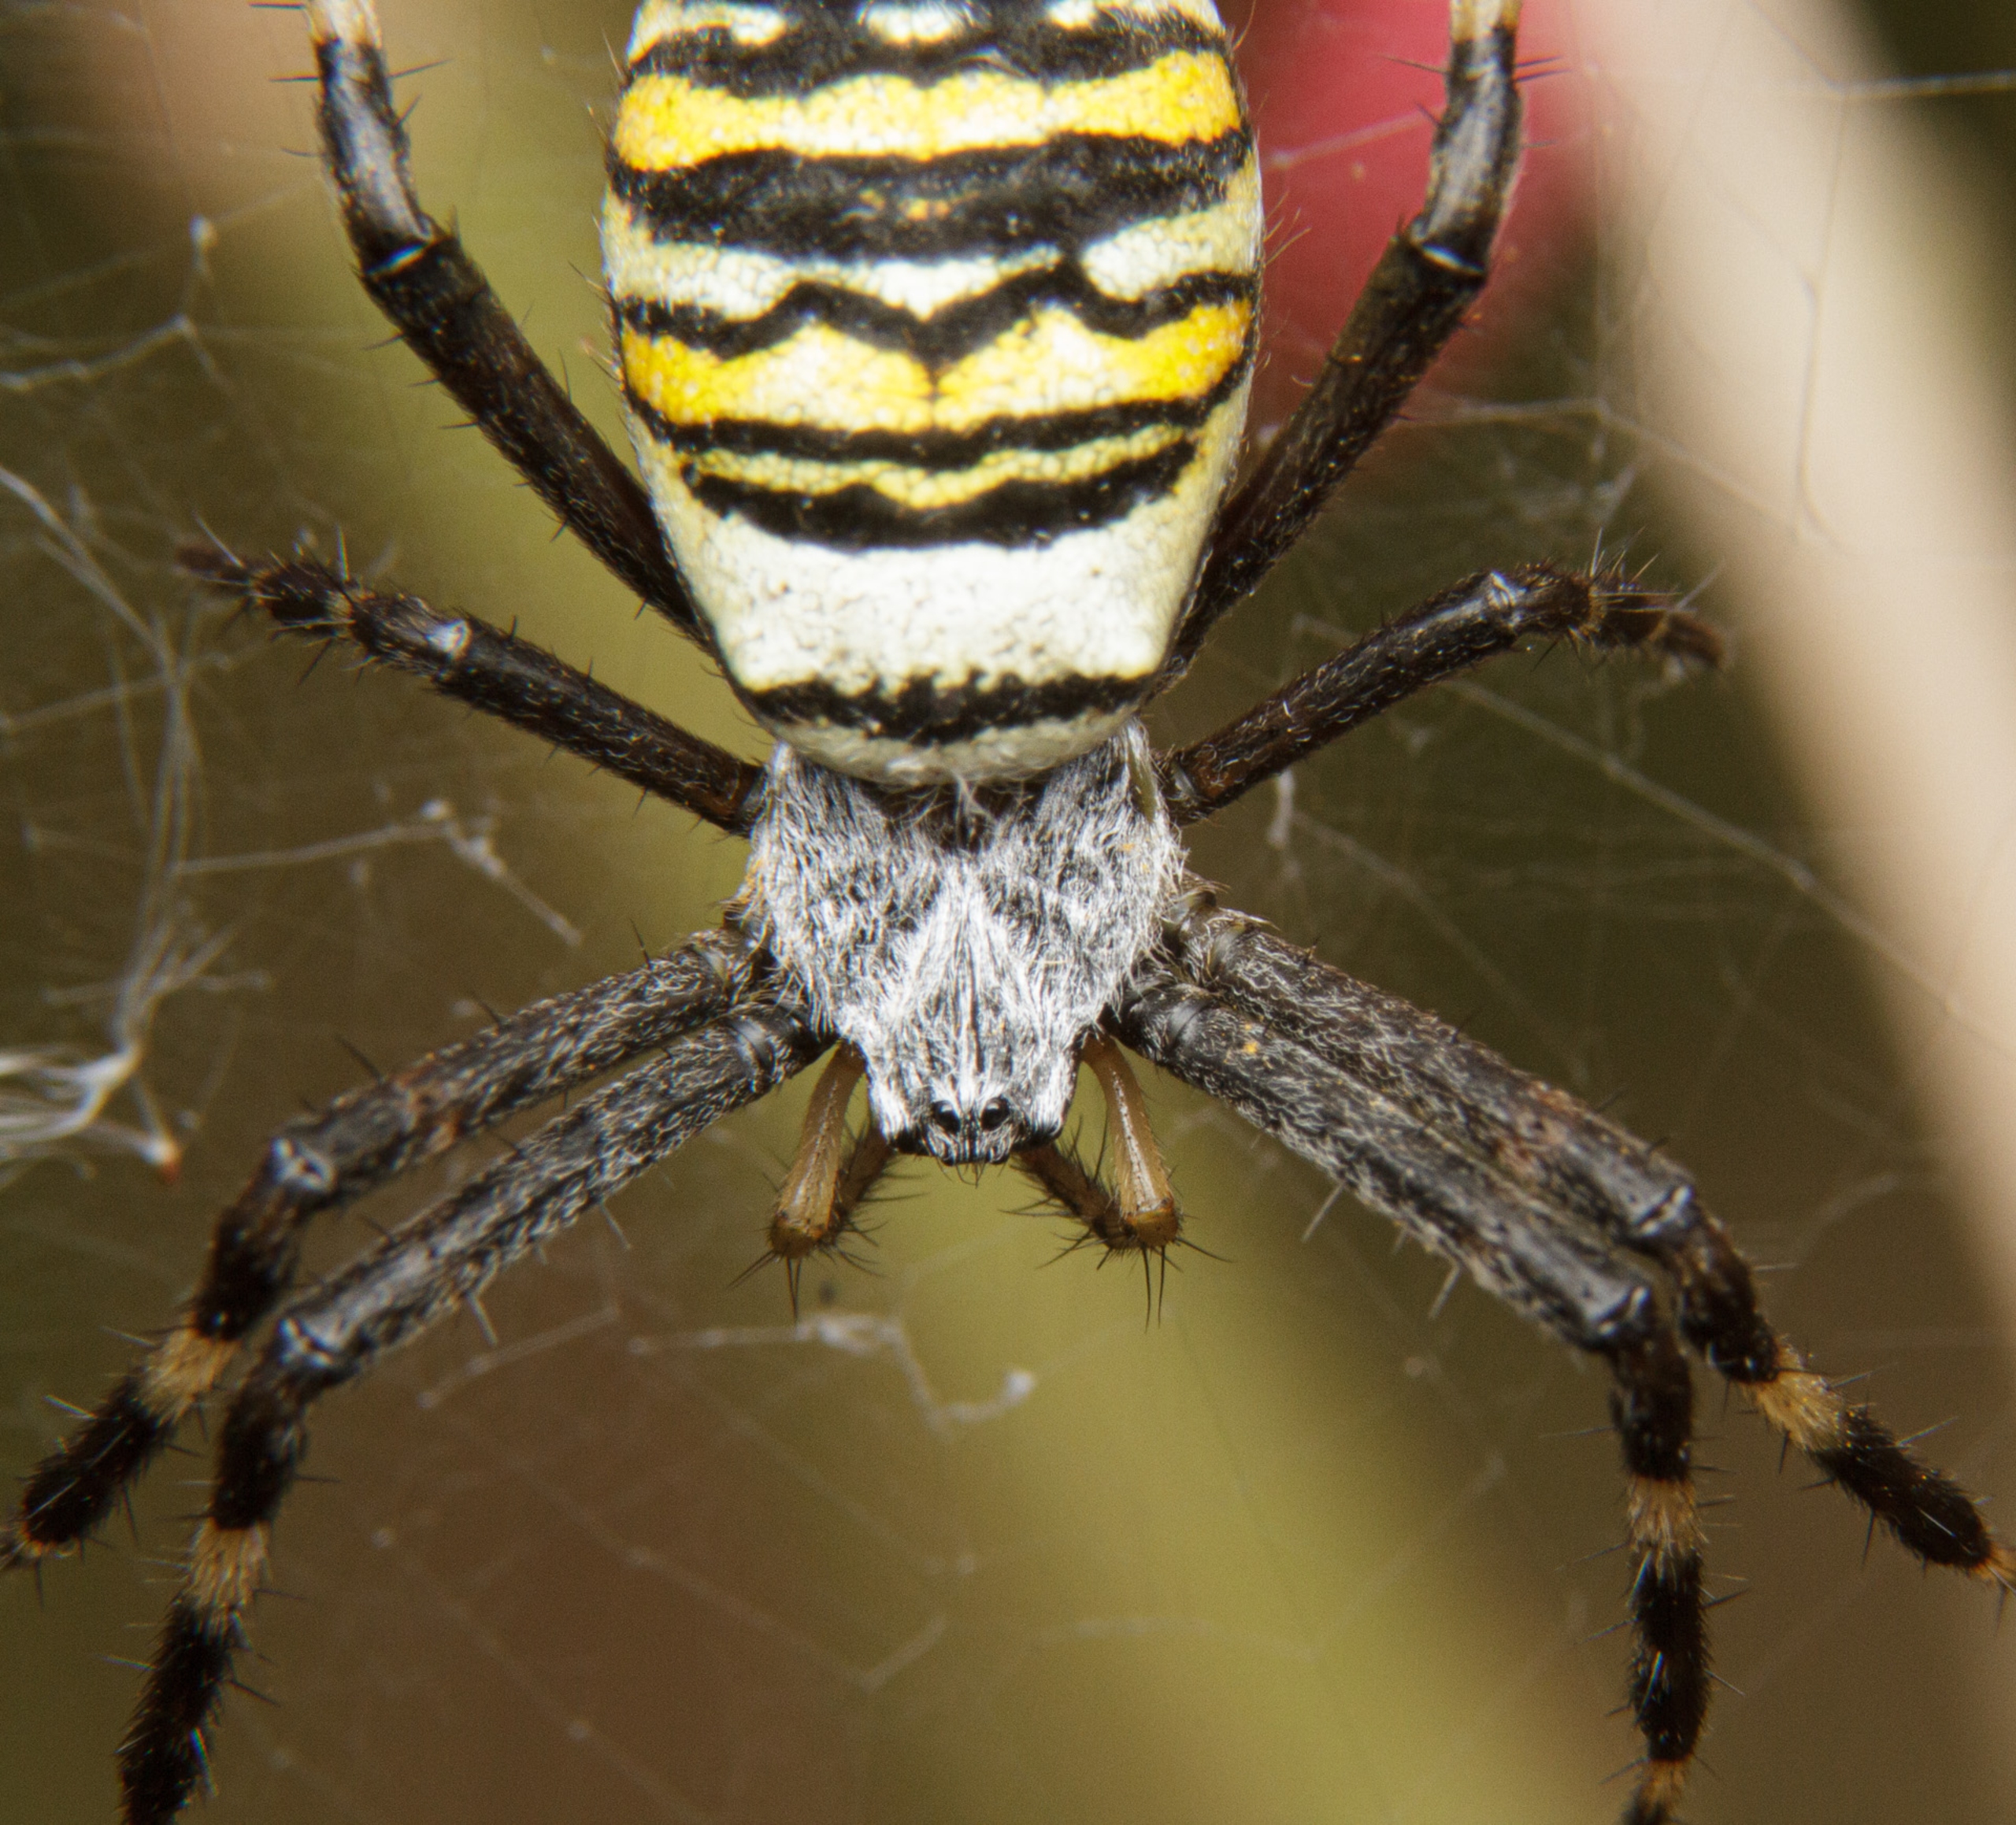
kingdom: Animalia
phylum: Arthropoda
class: Arachnida
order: Araneae
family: Araneidae
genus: Argiope
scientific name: Argiope bruennichi
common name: Hvepseedderkop
